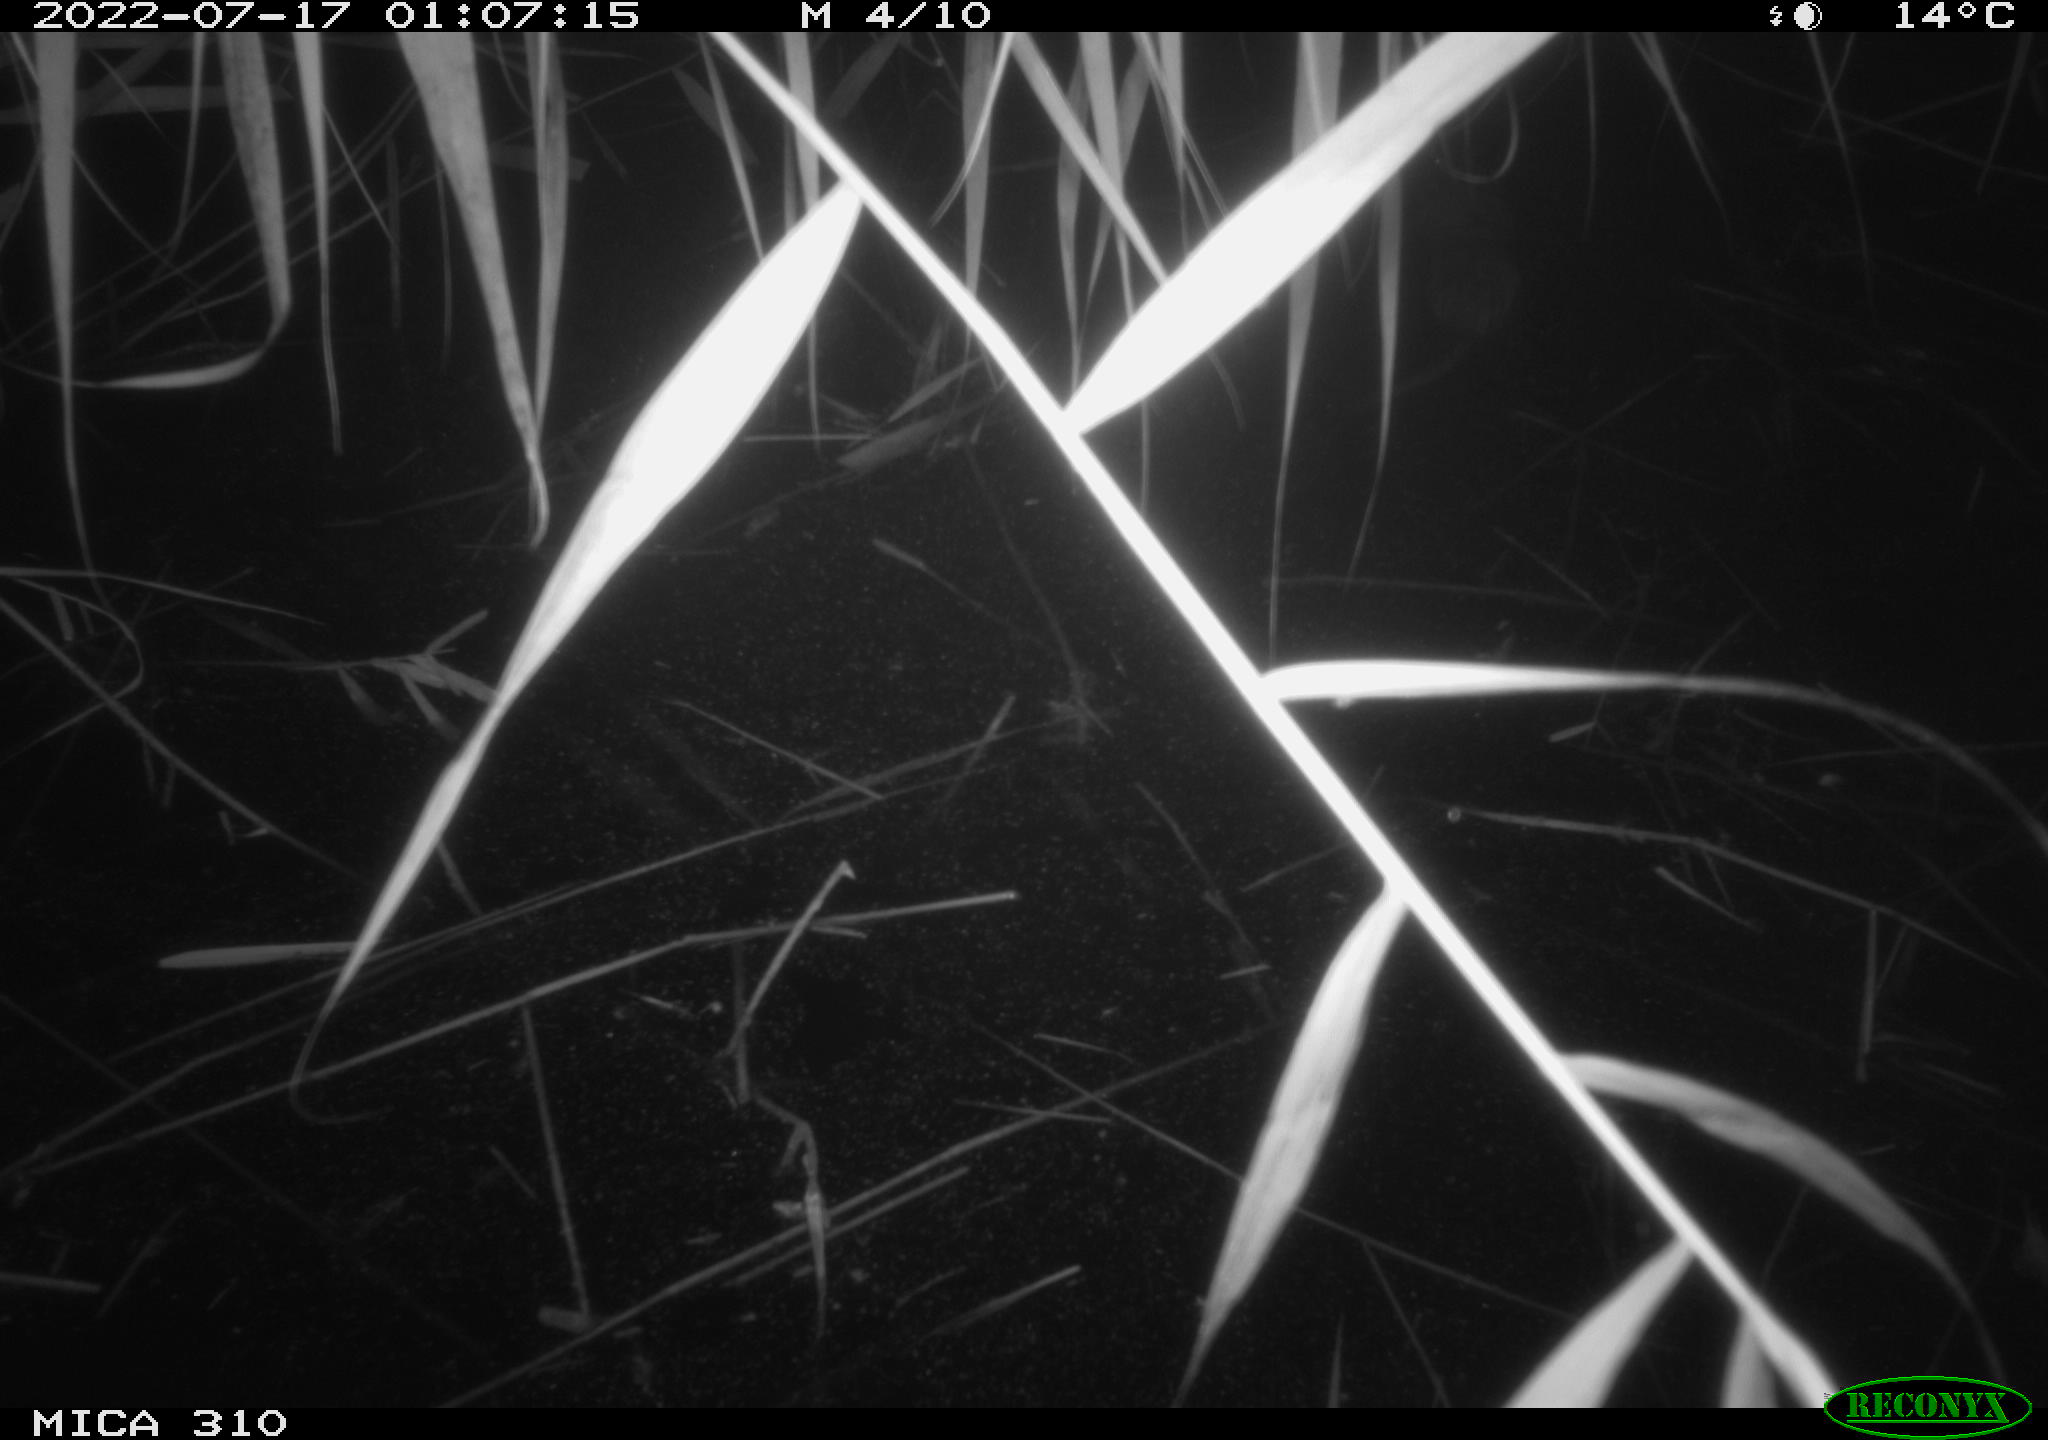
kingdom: Animalia
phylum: Chordata
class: Mammalia
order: Rodentia
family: Cricetidae
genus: Ondatra
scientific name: Ondatra zibethicus
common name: Muskrat
